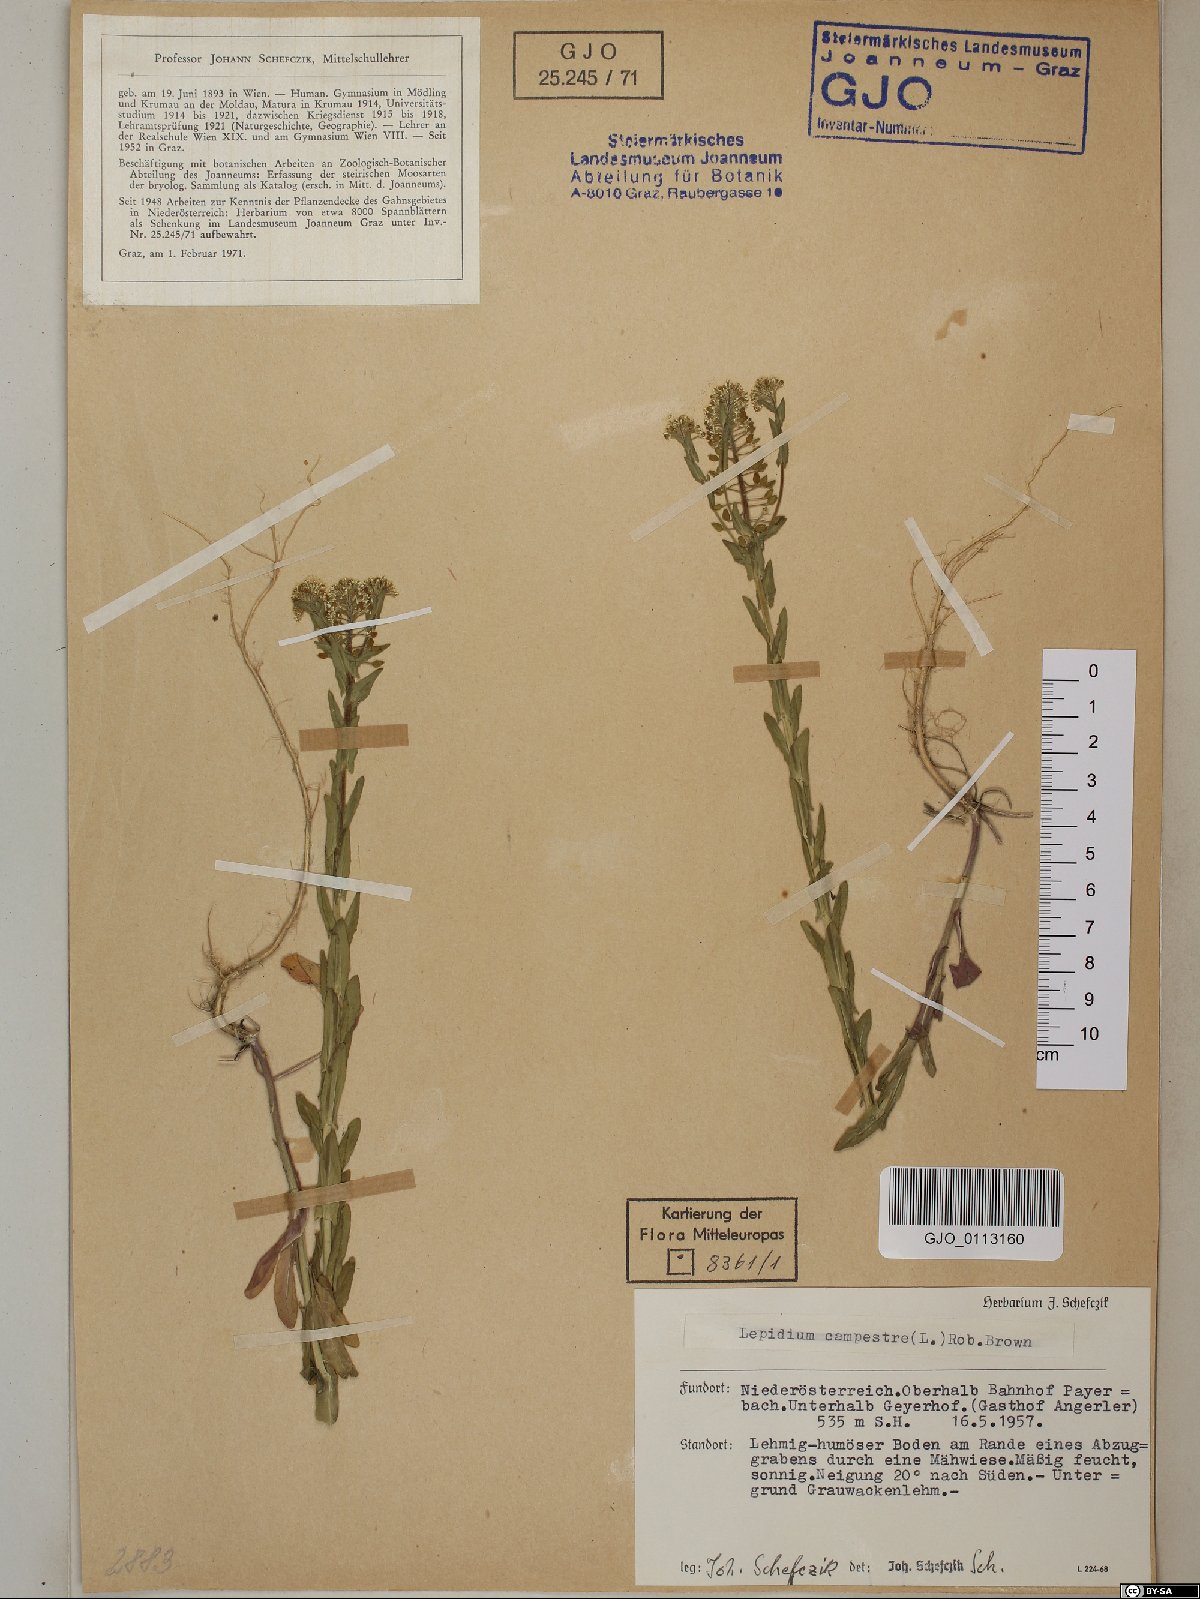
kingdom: Plantae
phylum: Tracheophyta
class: Magnoliopsida
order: Brassicales
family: Brassicaceae
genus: Lepidium
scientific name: Lepidium campestre
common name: Field pepperwort
